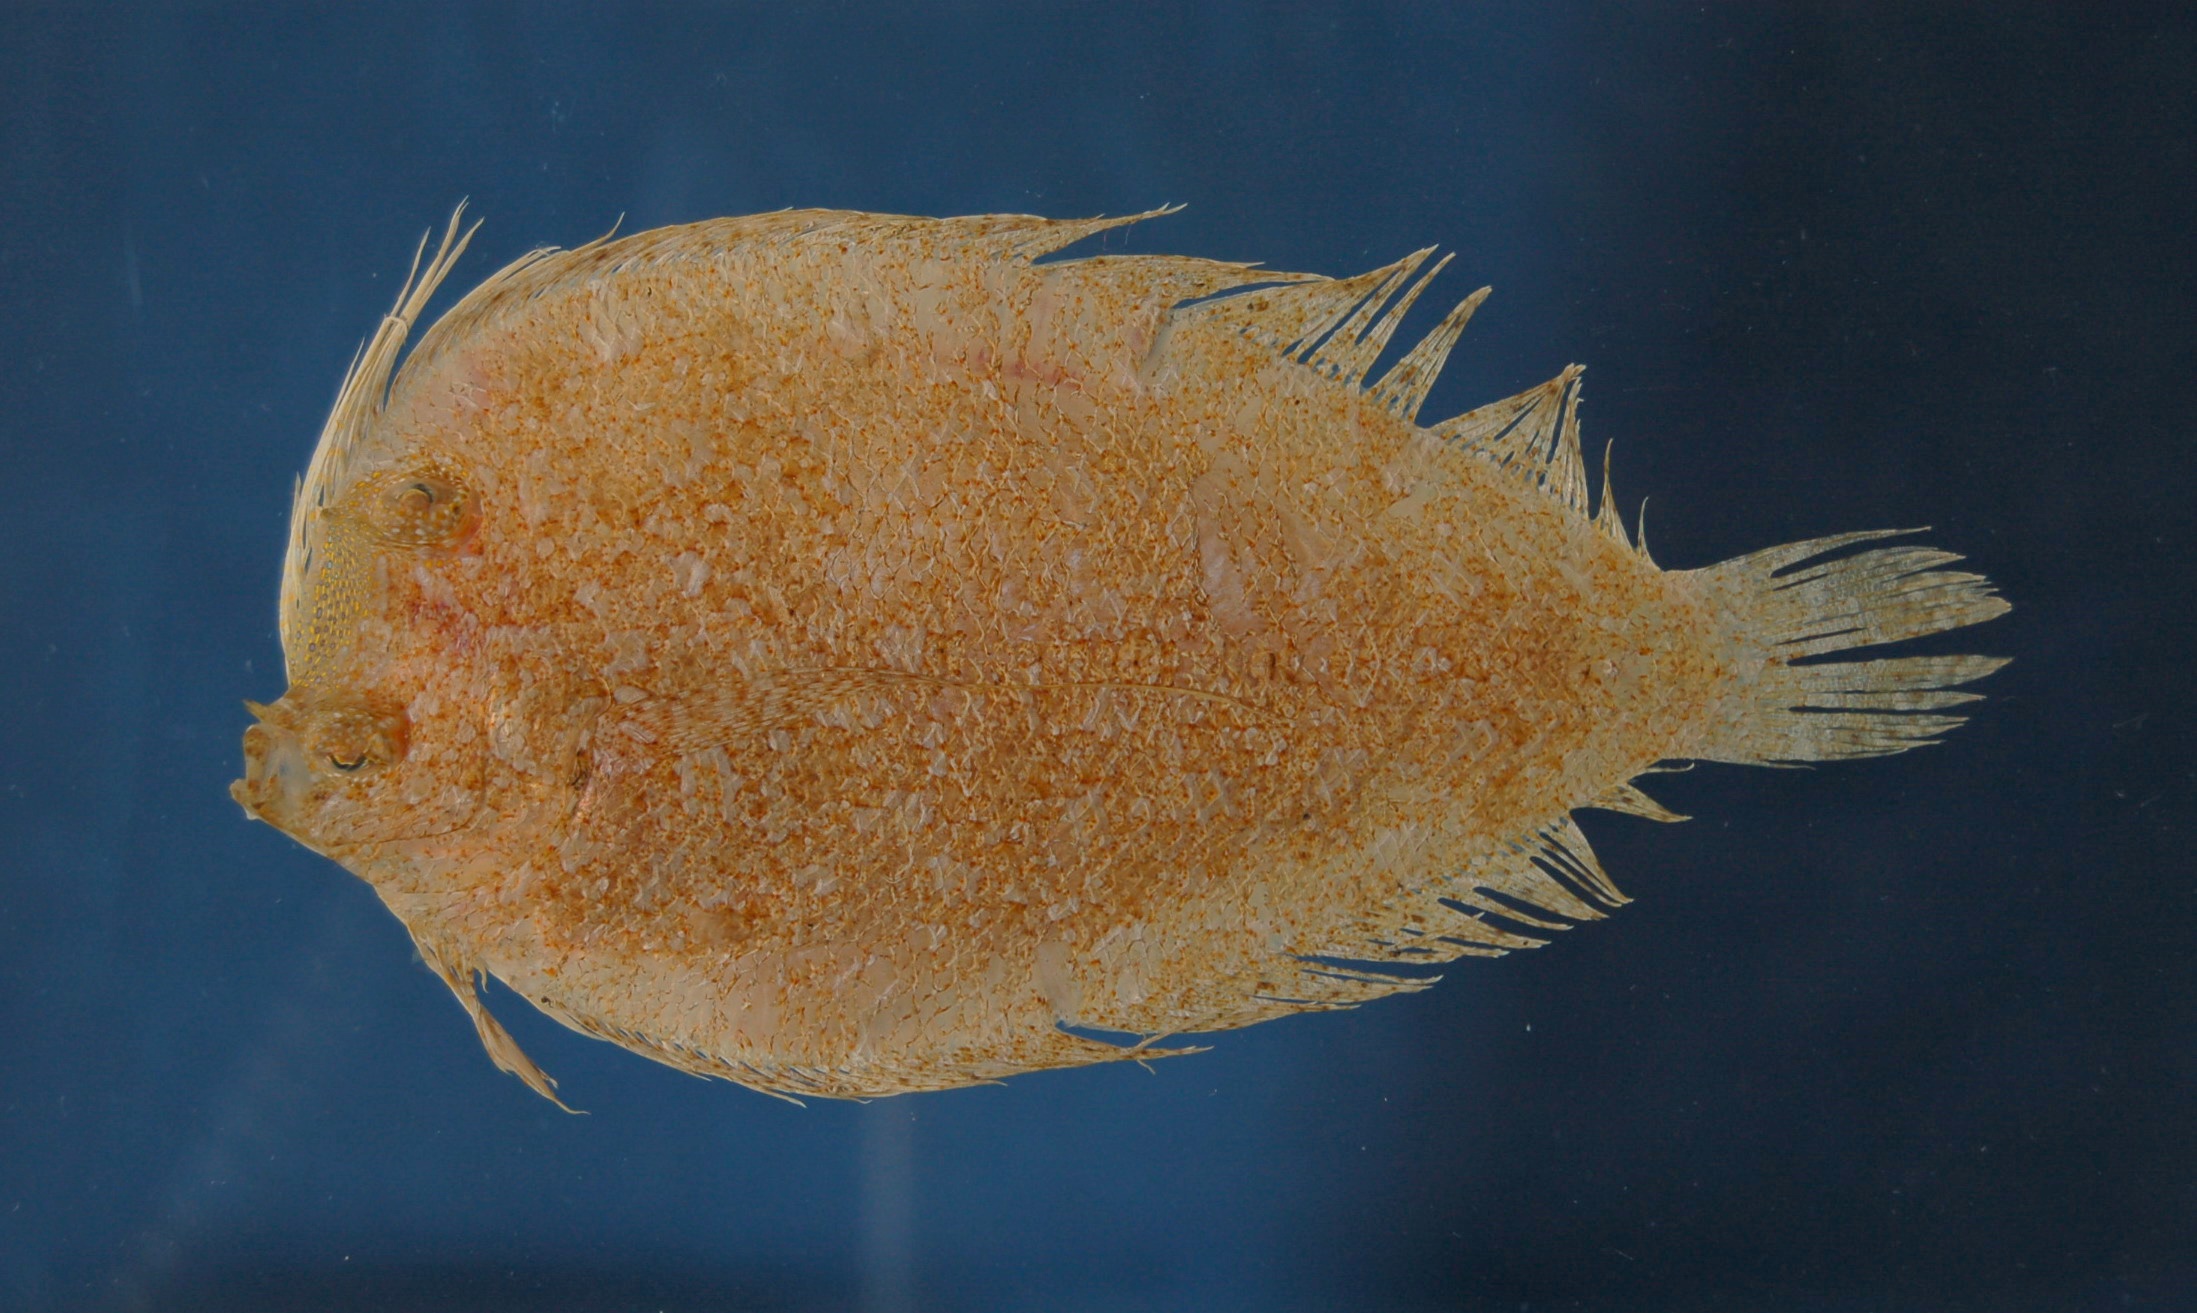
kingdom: Animalia
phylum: Chordata
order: Perciformes
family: Callionymidae
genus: Callionymus
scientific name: Callionymus gardineri
